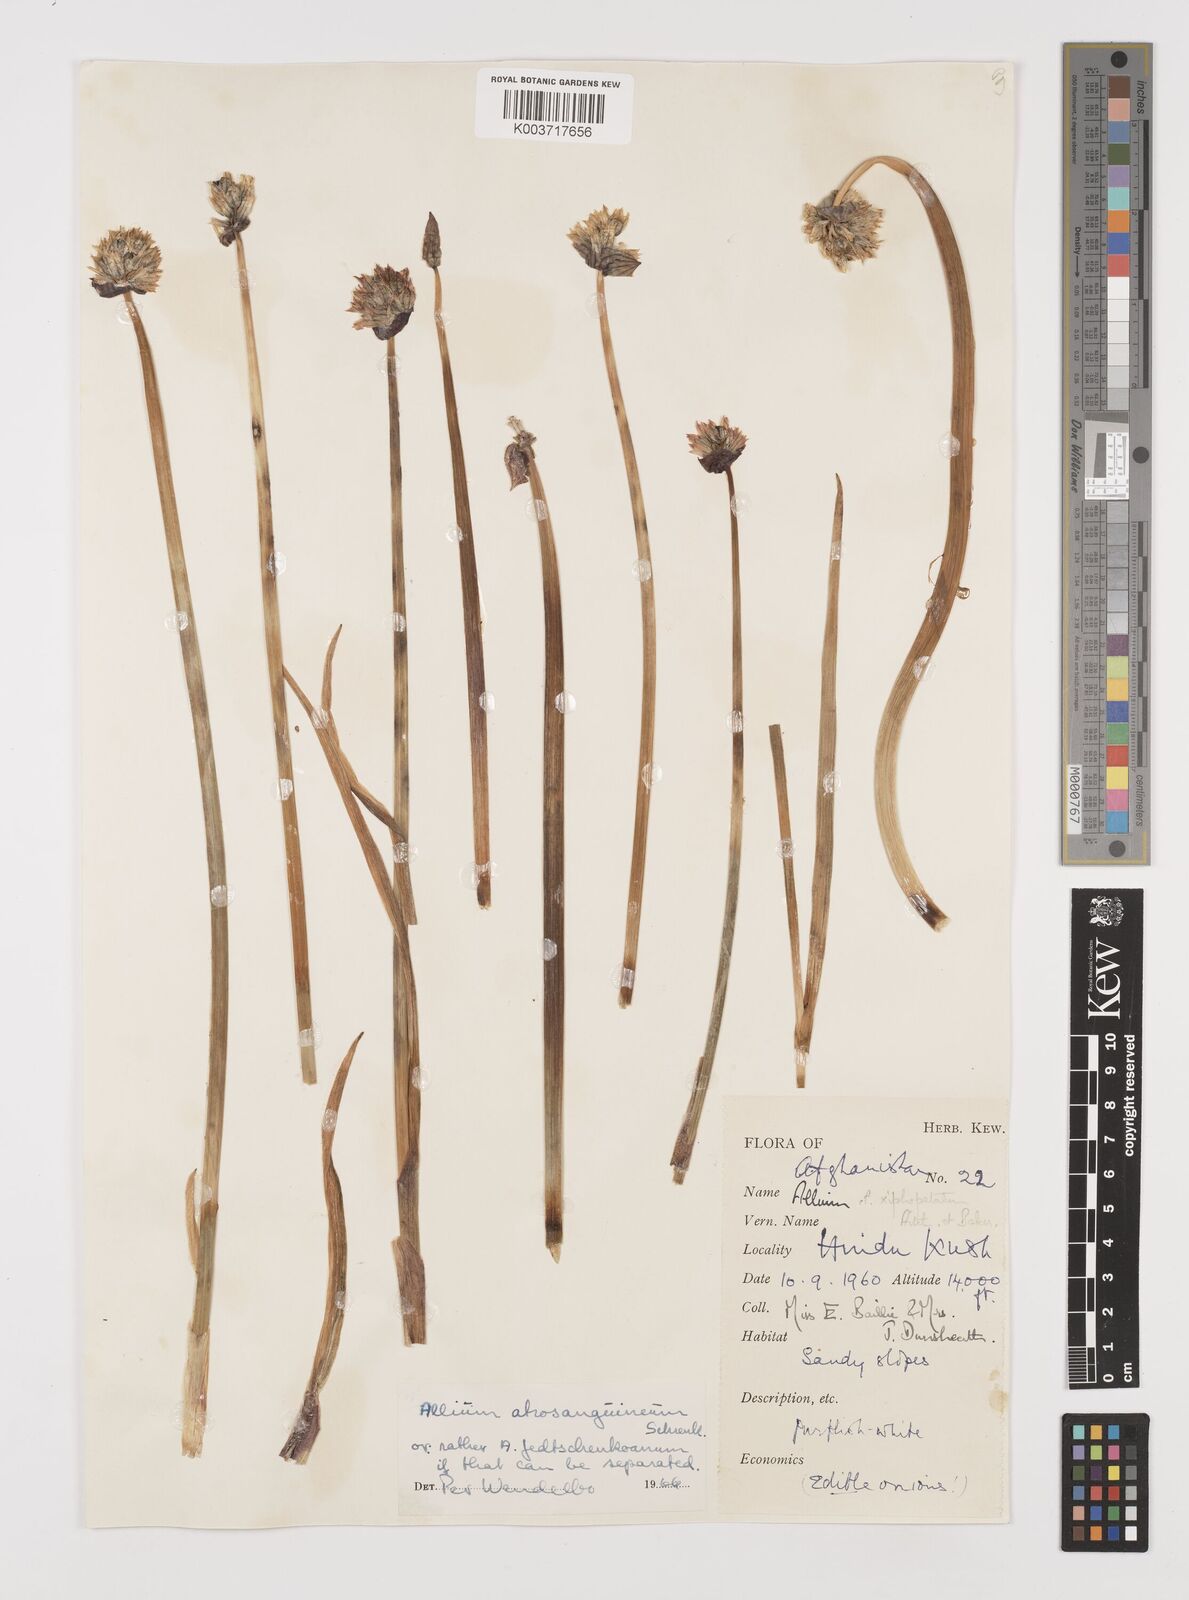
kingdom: Plantae
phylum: Tracheophyta
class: Liliopsida
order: Asparagales
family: Amaryllidaceae
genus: Allium
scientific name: Allium atrosanguineum
